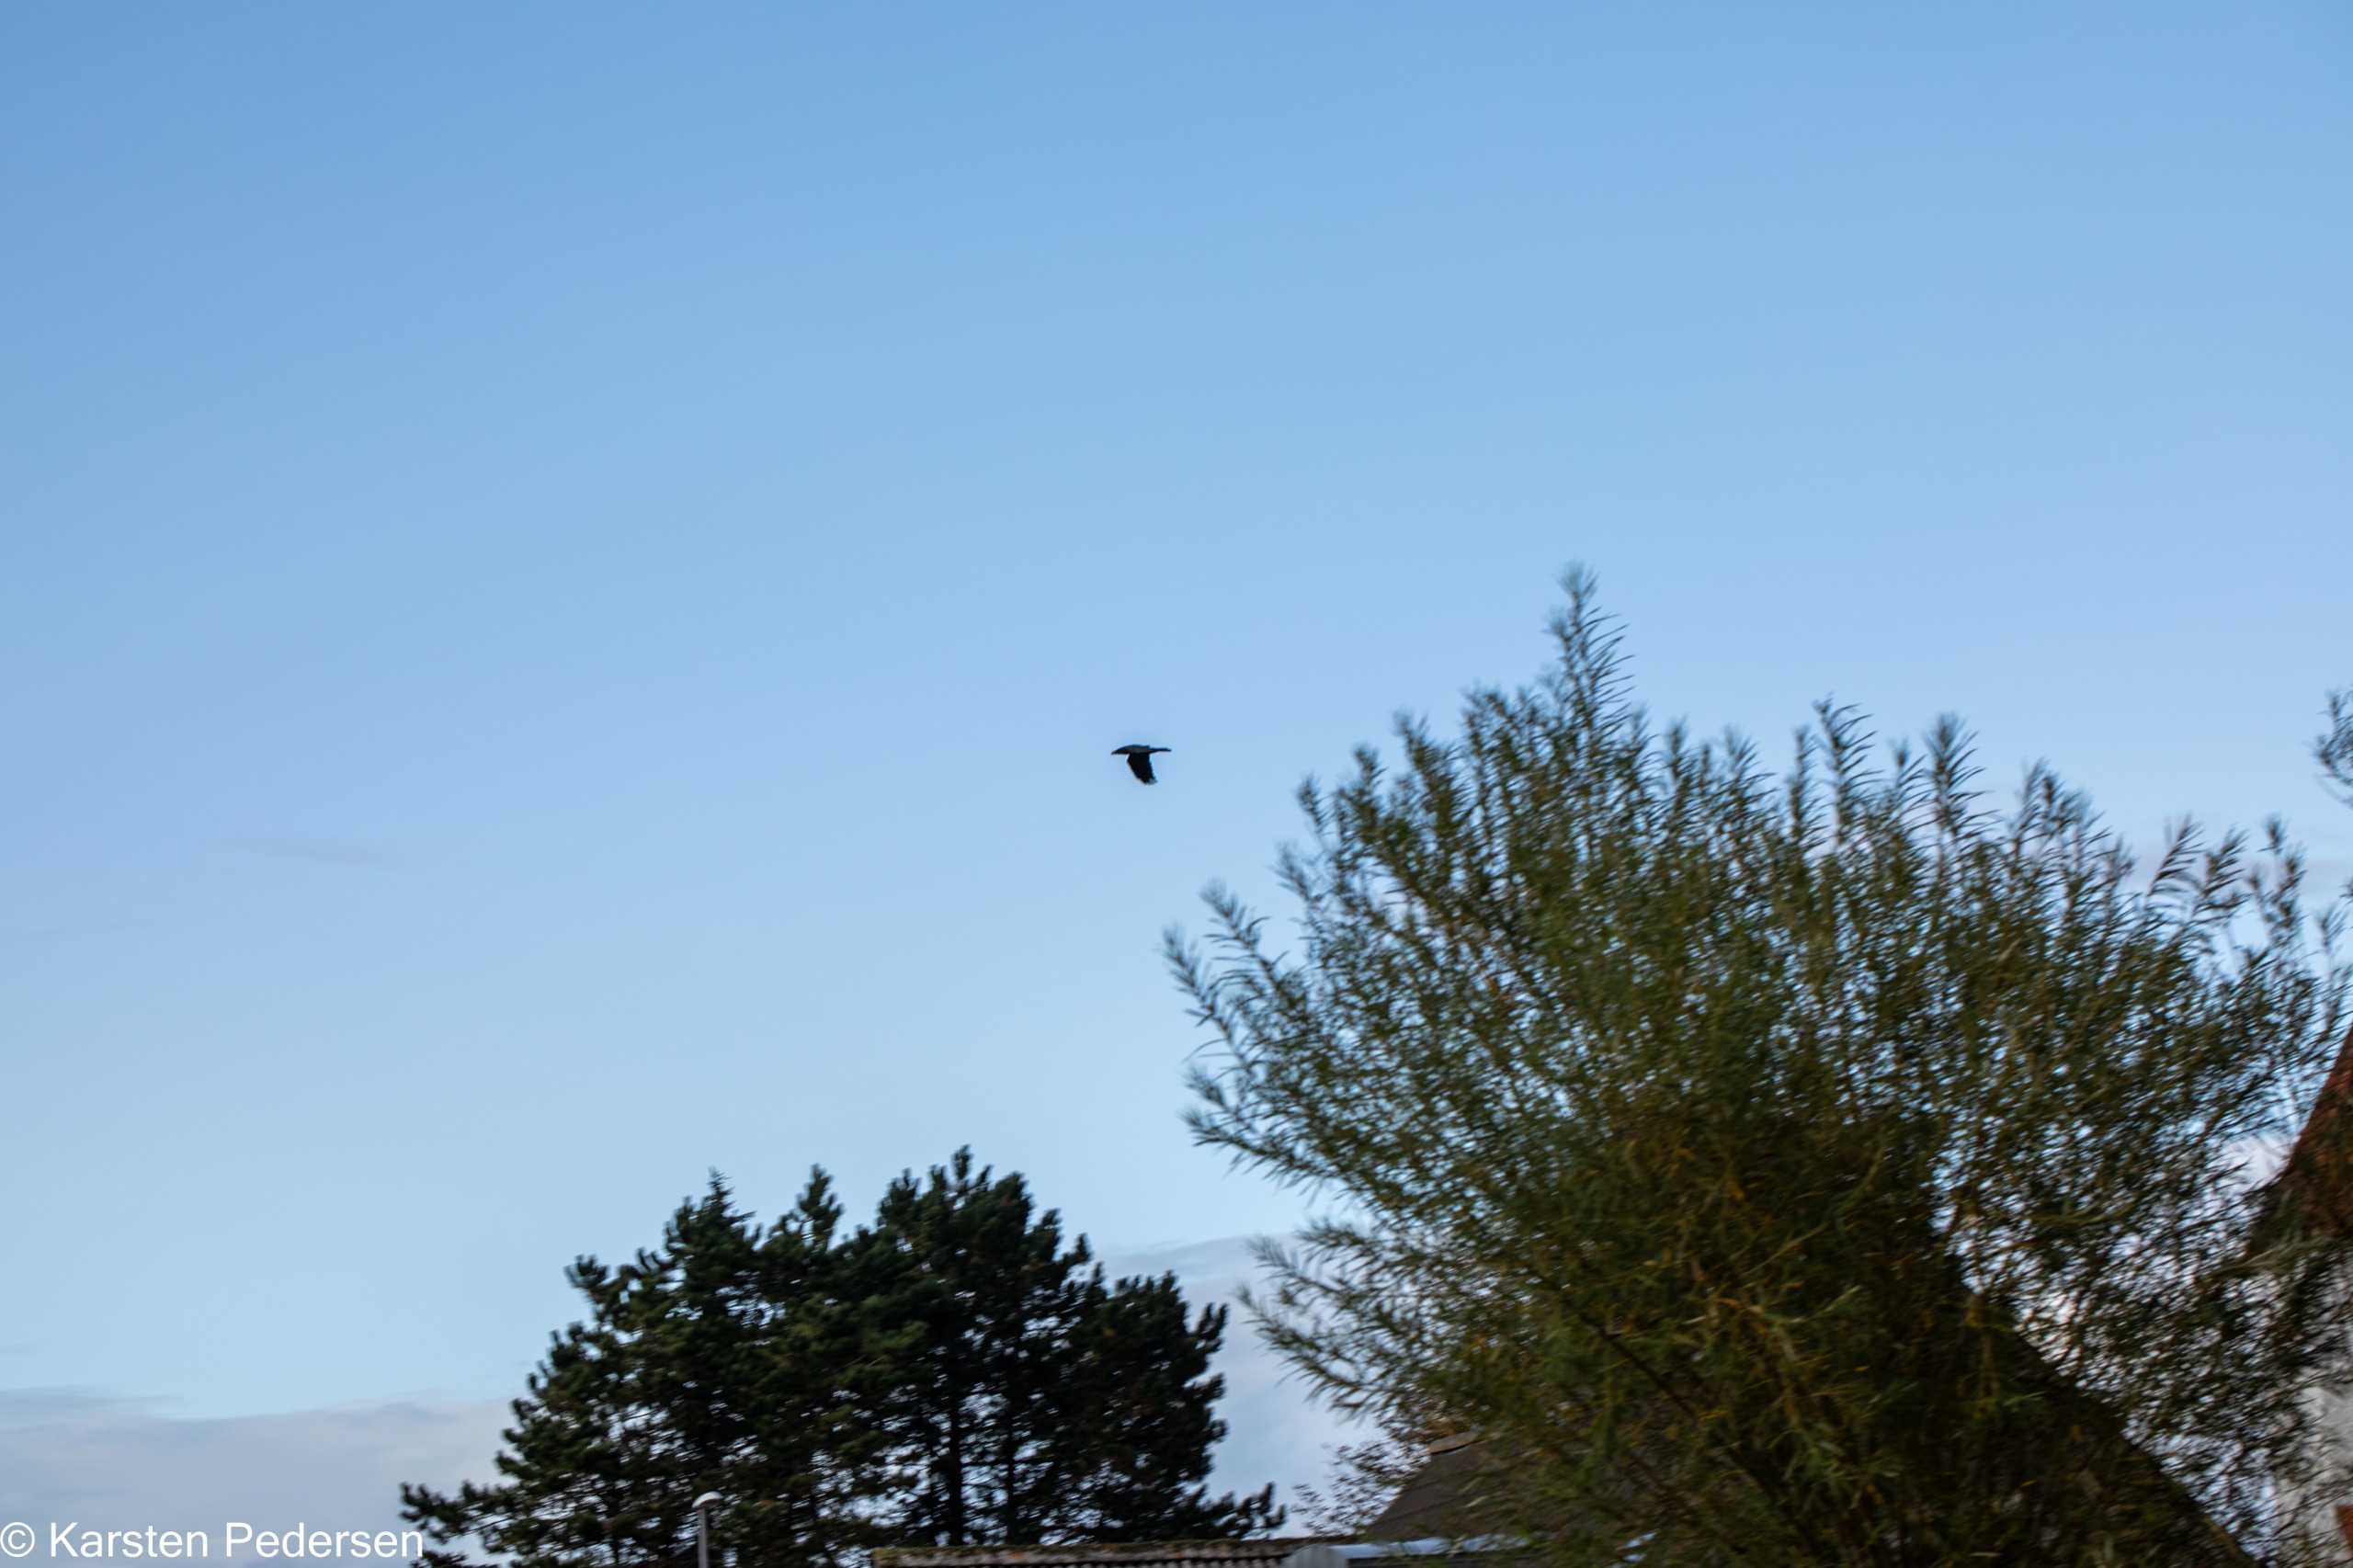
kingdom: Animalia
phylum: Chordata
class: Aves
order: Passeriformes
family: Corvidae
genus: Corvus
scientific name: Corvus corax
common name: Ravn
